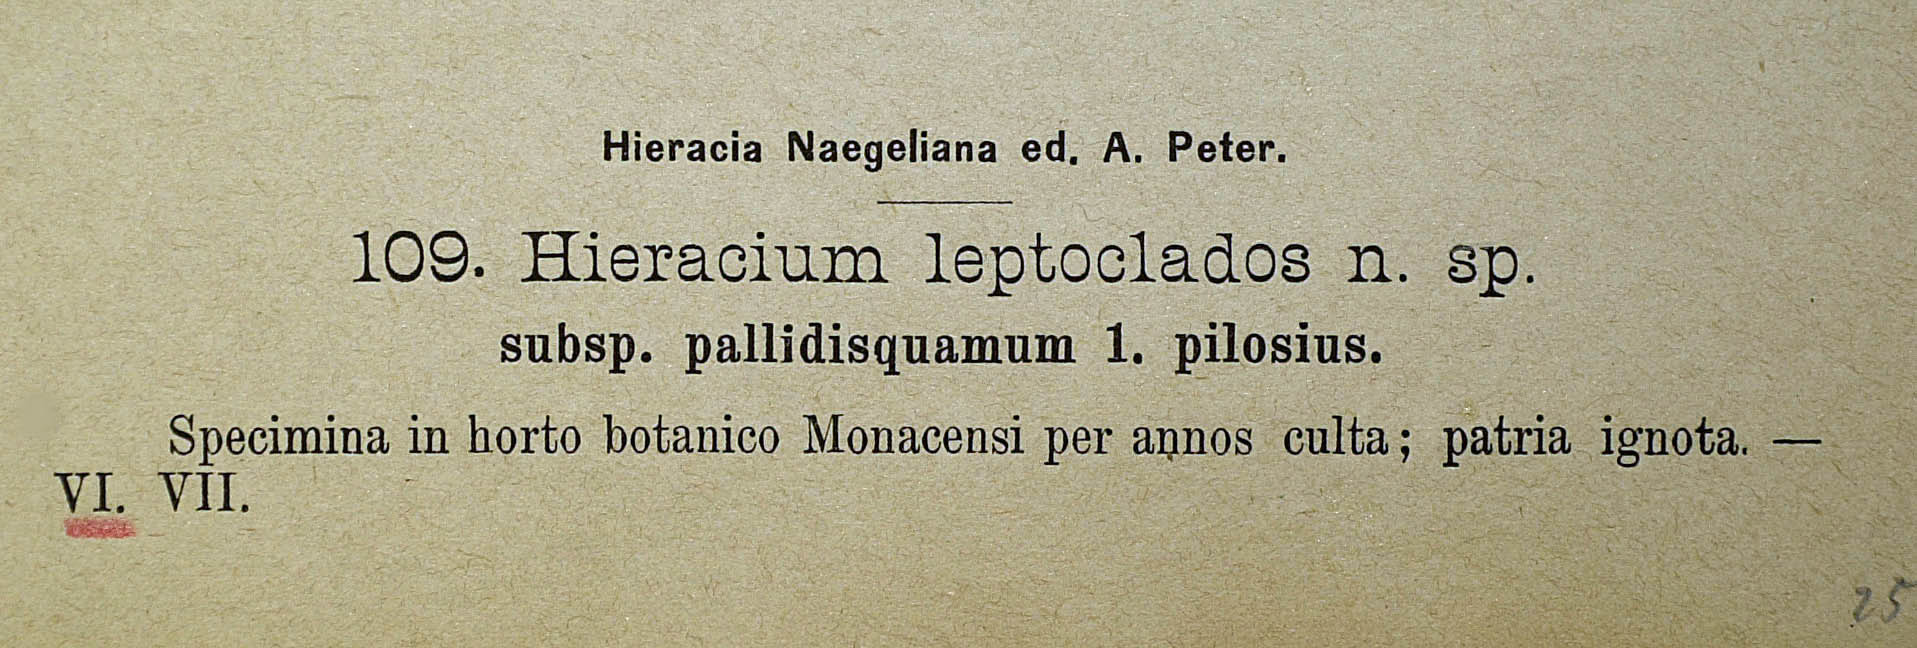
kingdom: Plantae
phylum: Tracheophyta
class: Magnoliopsida
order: Asterales
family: Asteraceae
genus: Pilosella
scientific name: Pilosella leptoclados
